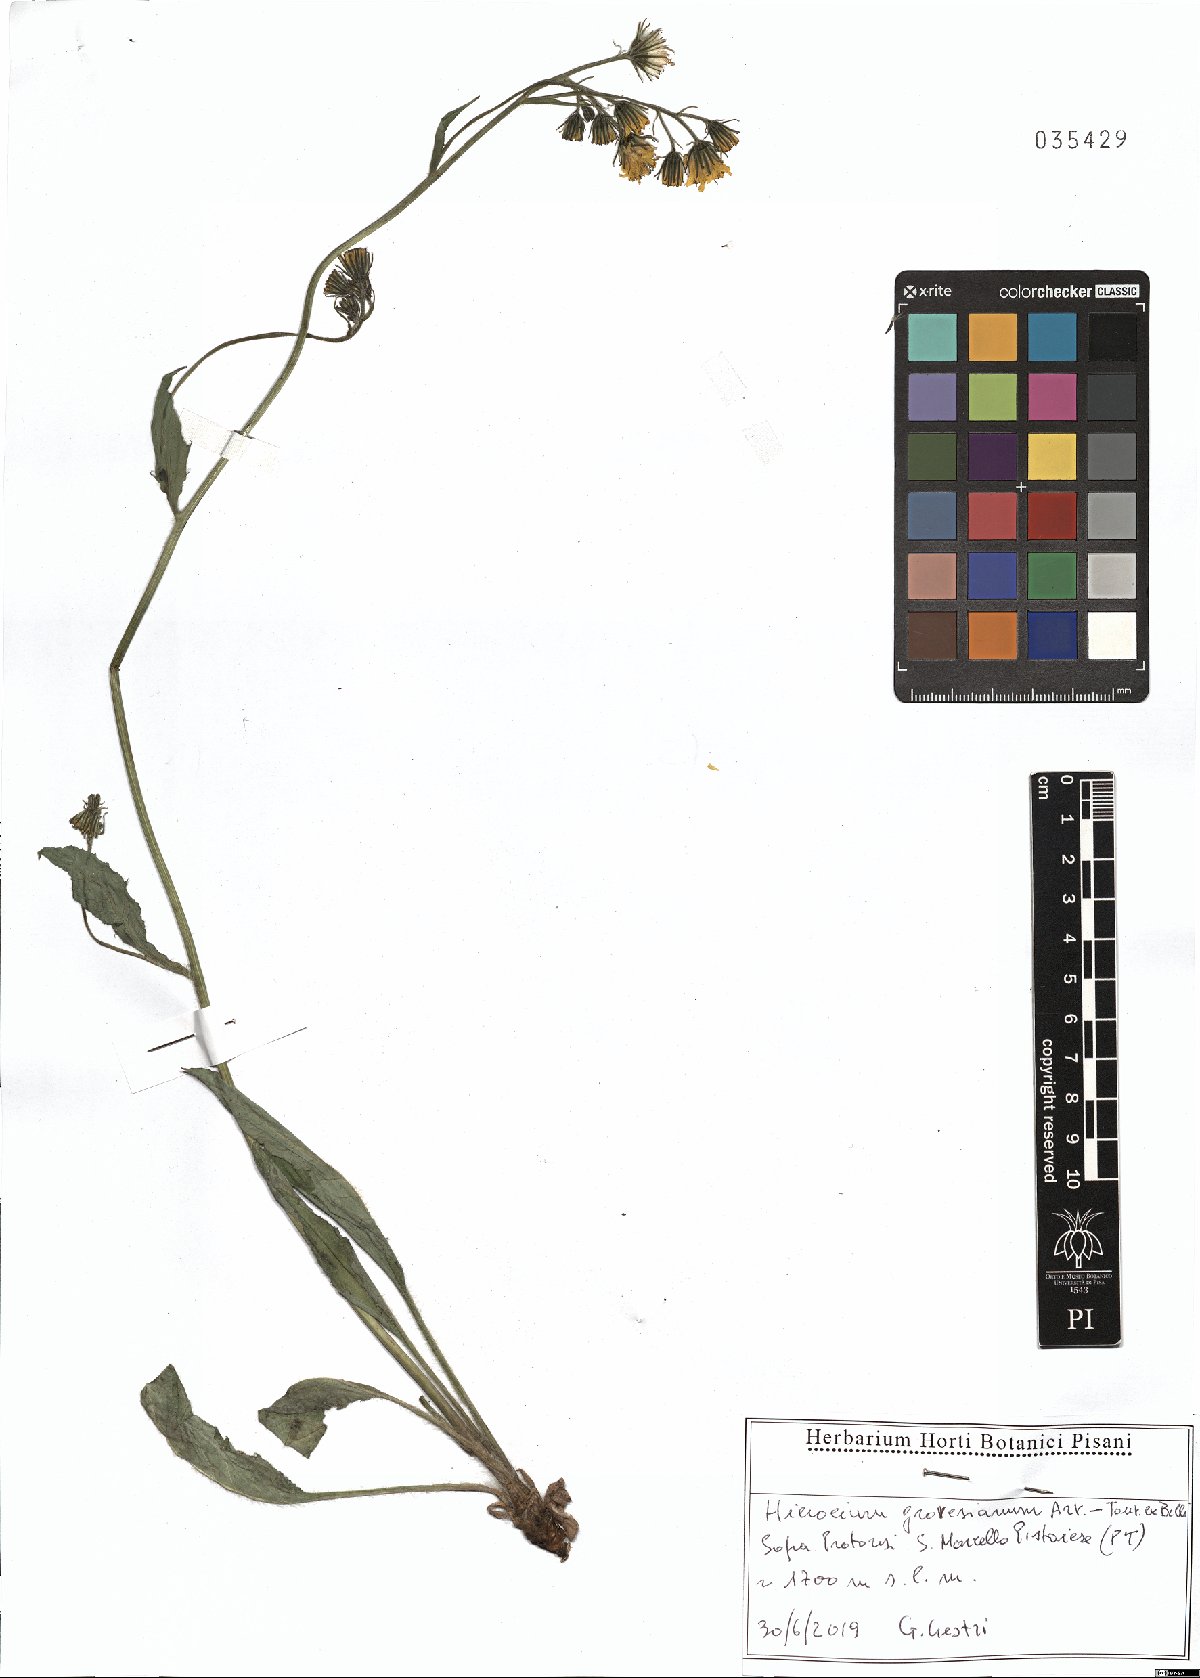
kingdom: Plantae
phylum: Tracheophyta
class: Magnoliopsida
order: Asterales
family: Asteraceae
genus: Hieracium
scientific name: Hieracium grovesianum
